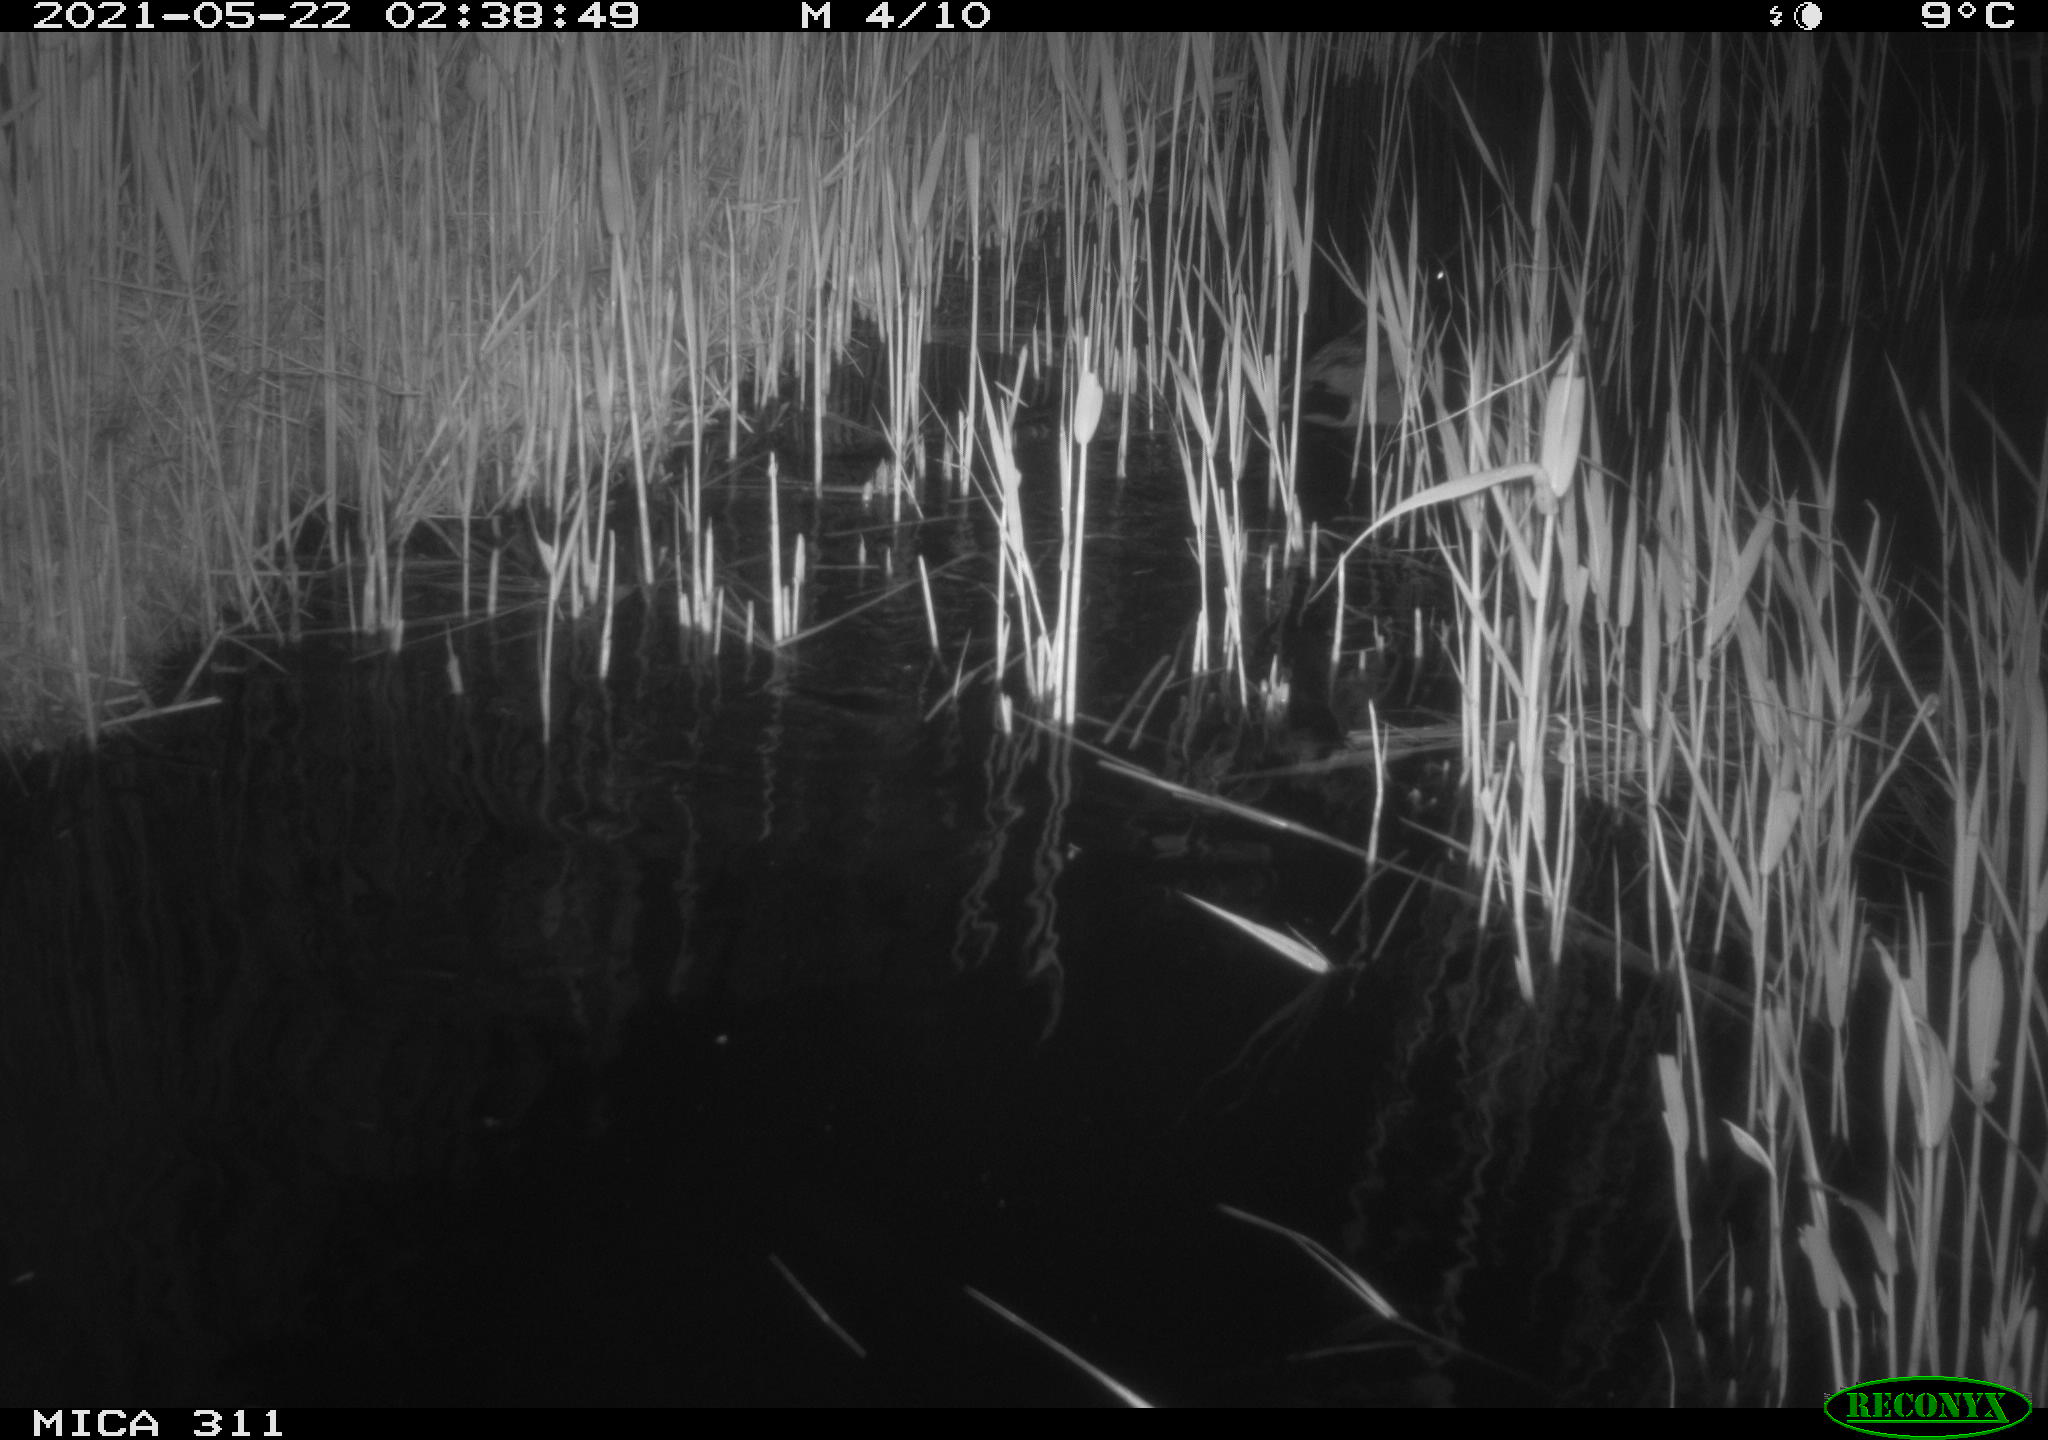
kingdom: Animalia
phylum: Chordata
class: Aves
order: Anseriformes
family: Anatidae
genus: Anas
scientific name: Anas platyrhynchos
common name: Mallard
